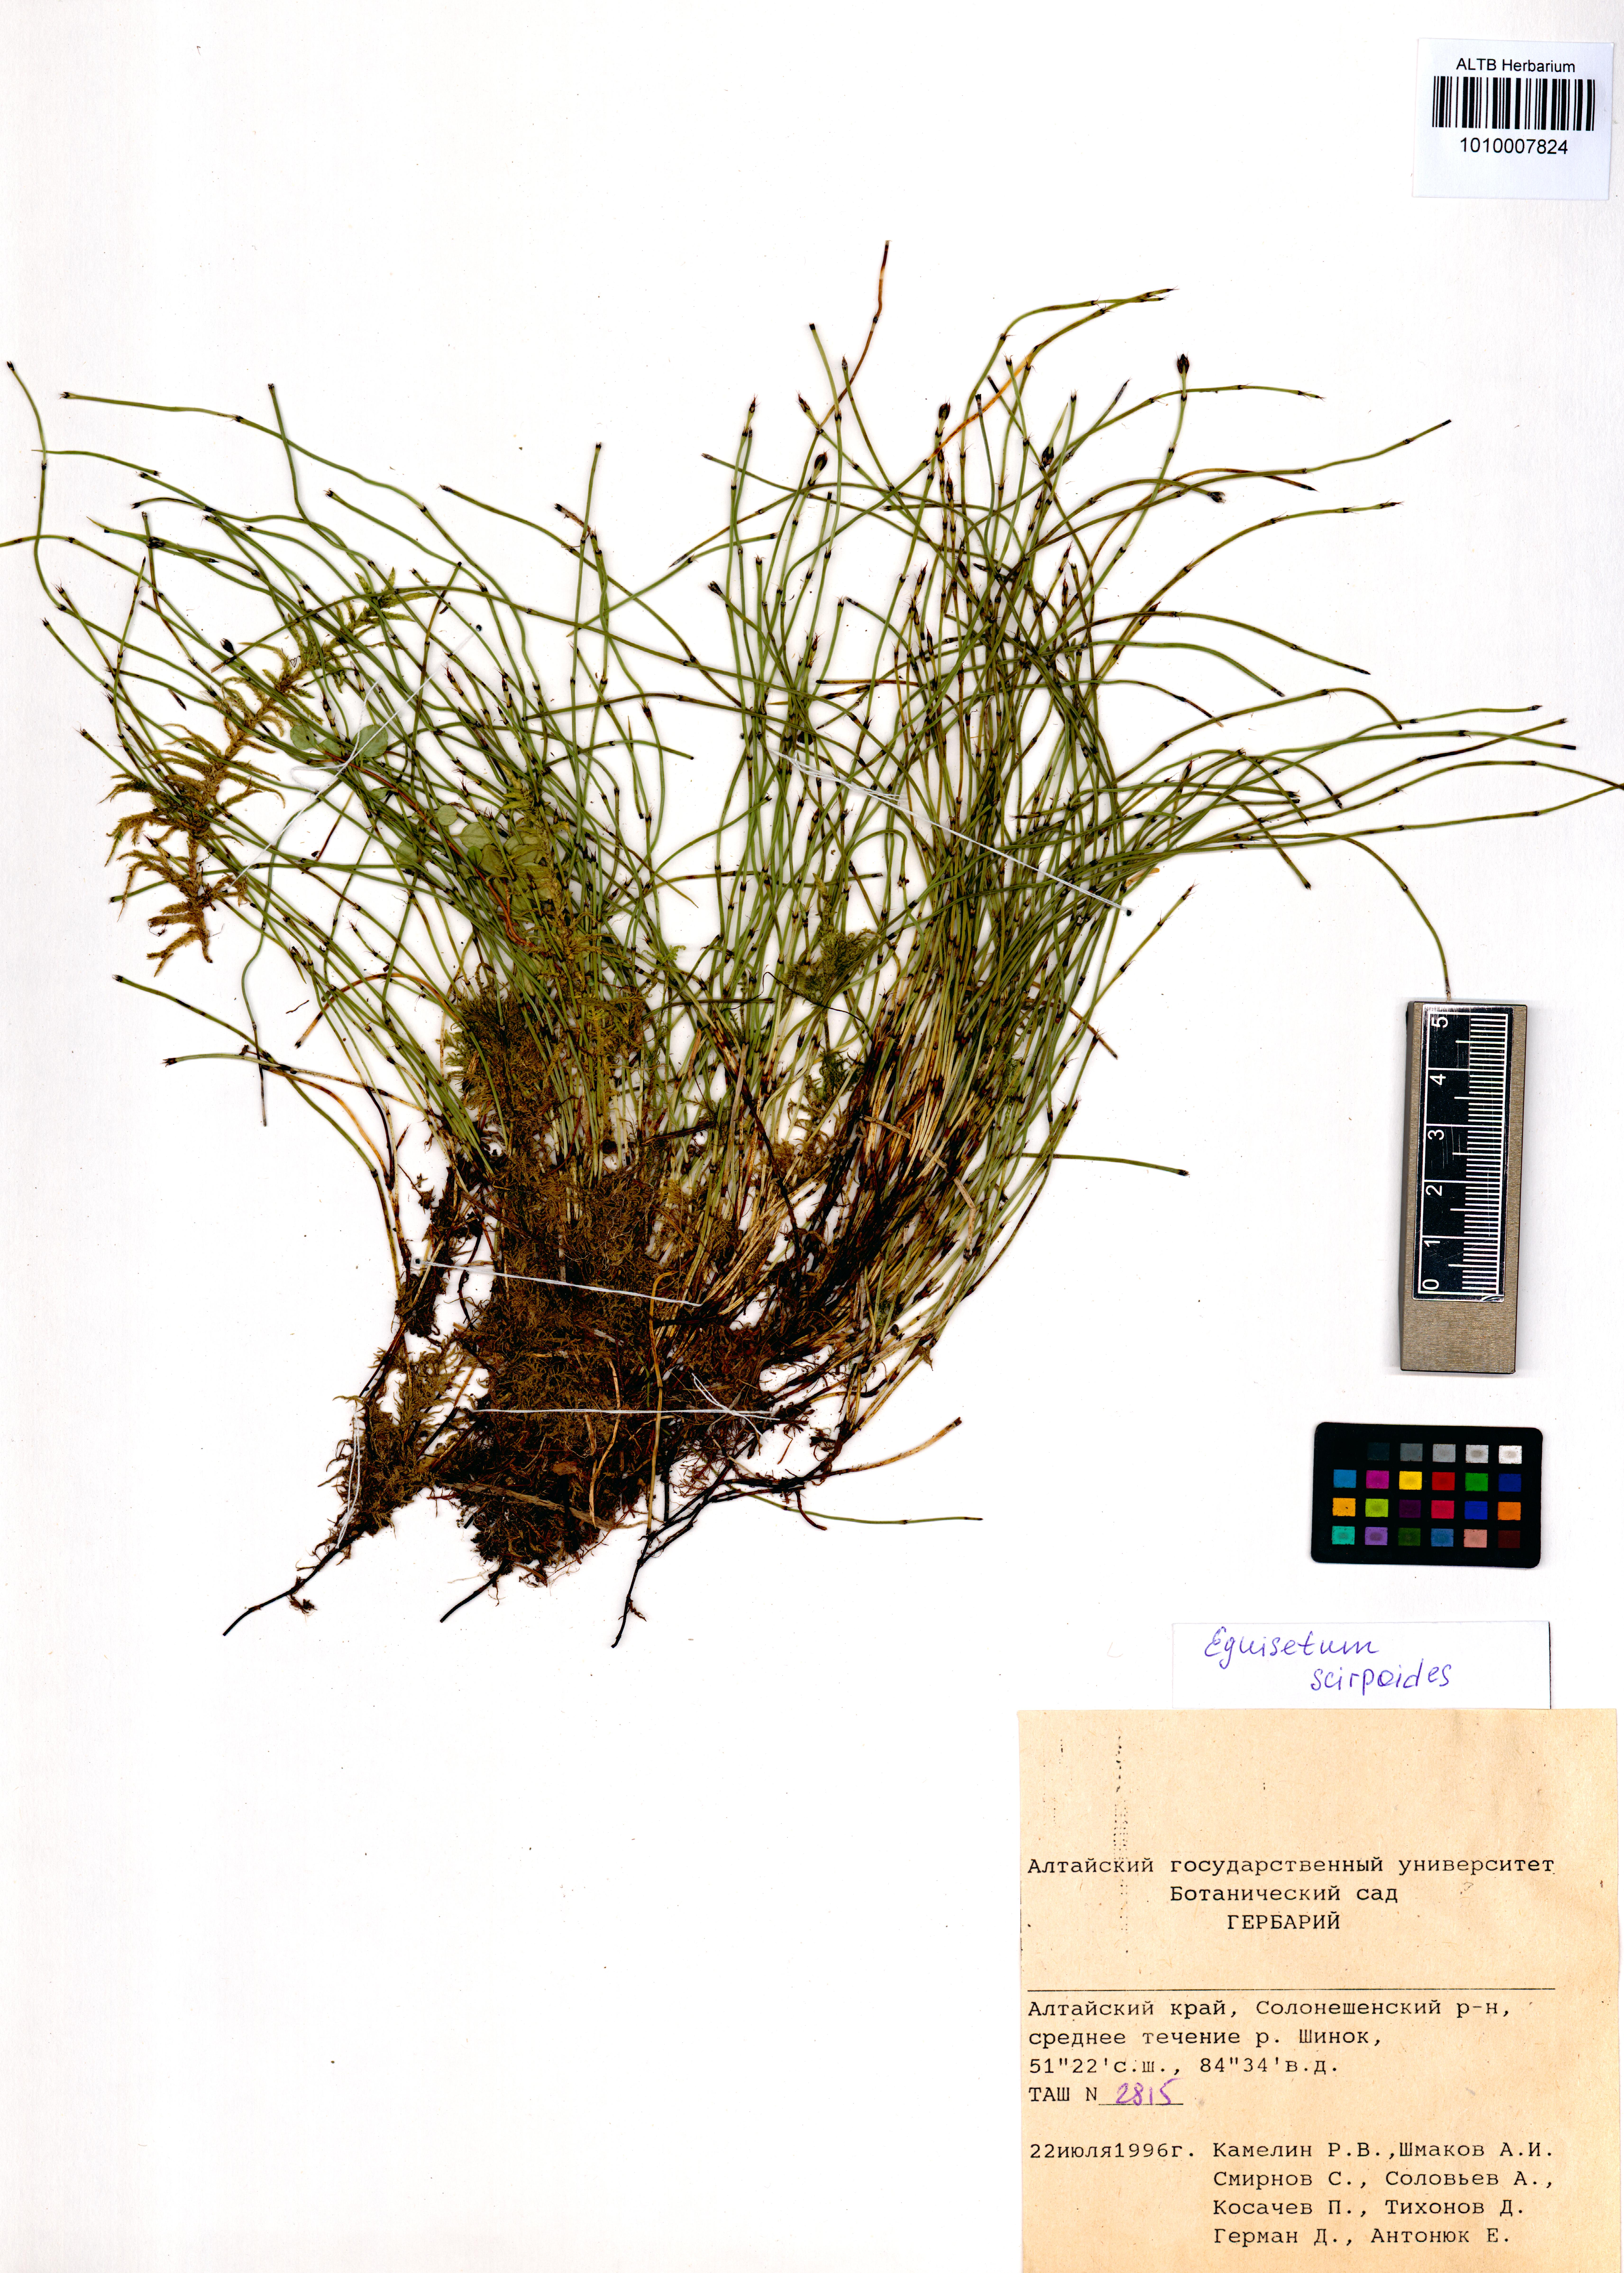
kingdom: Plantae
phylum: Tracheophyta
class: Polypodiopsida
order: Equisetales
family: Equisetaceae
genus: Equisetum
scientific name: Equisetum scirpoides
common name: Delicate horsetail
